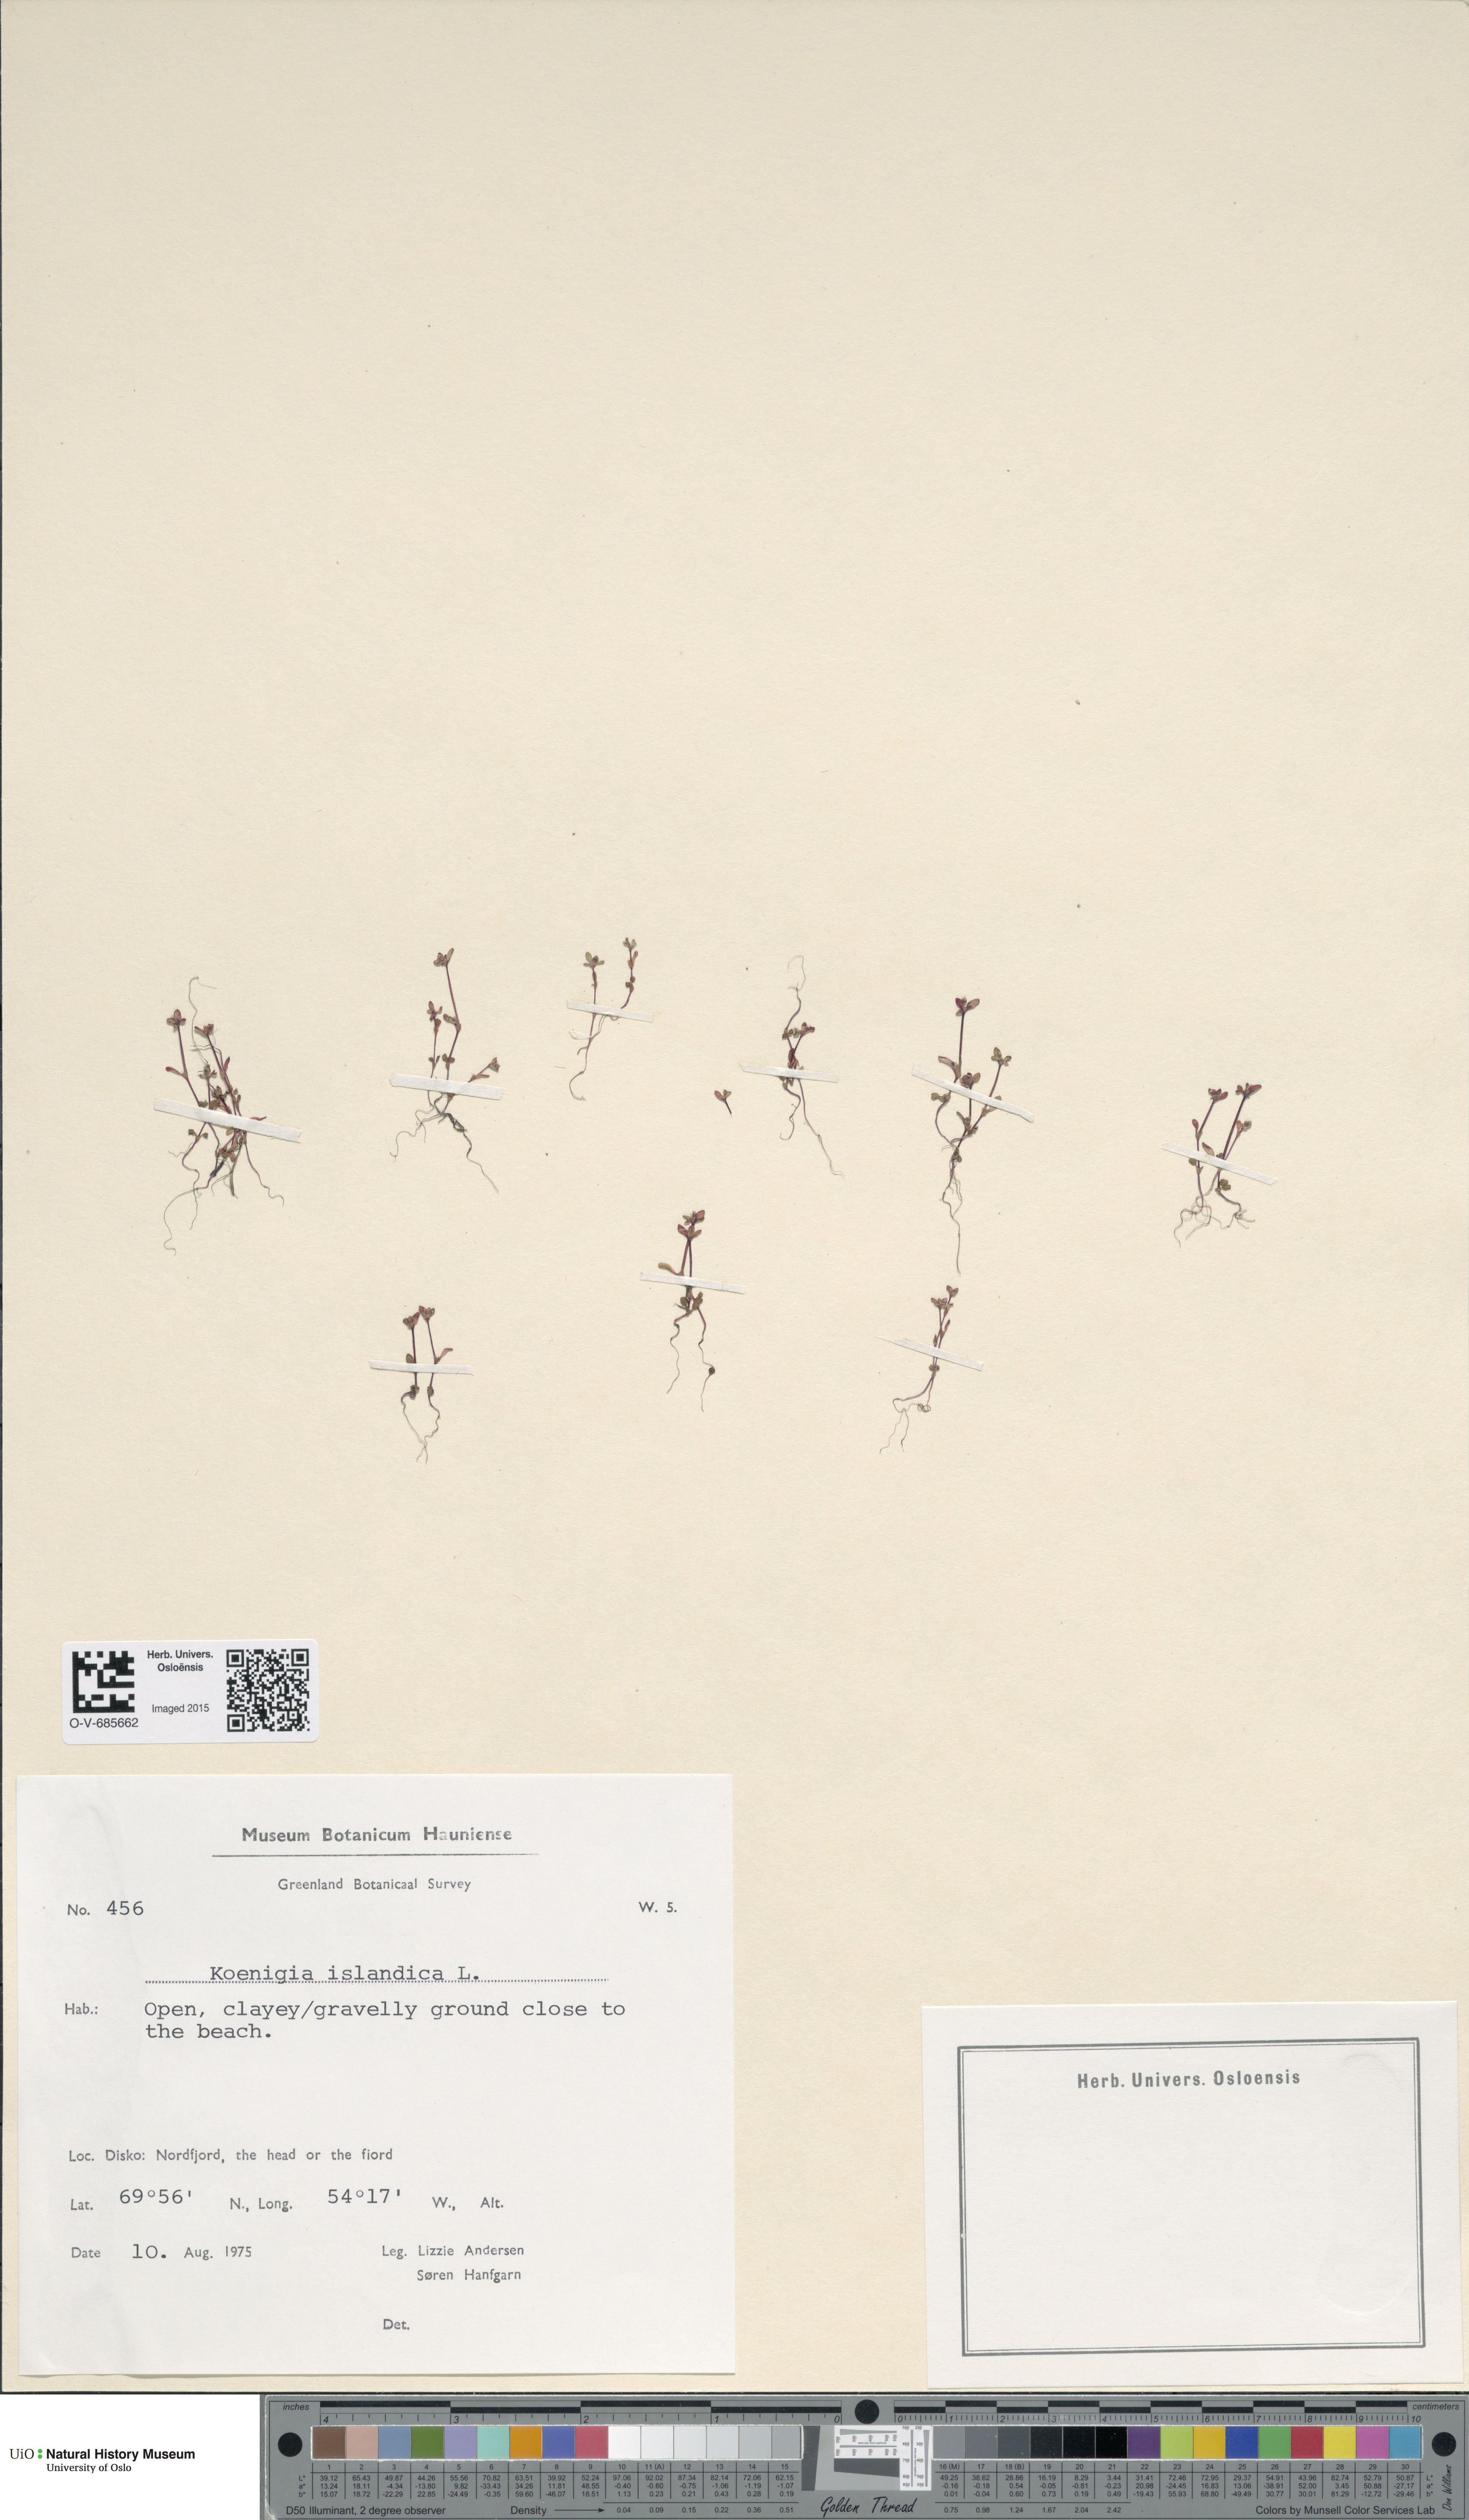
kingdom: Plantae
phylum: Tracheophyta
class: Magnoliopsida
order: Caryophyllales
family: Polygonaceae
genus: Koenigia
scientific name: Koenigia islandica
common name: Iceland-purslane
